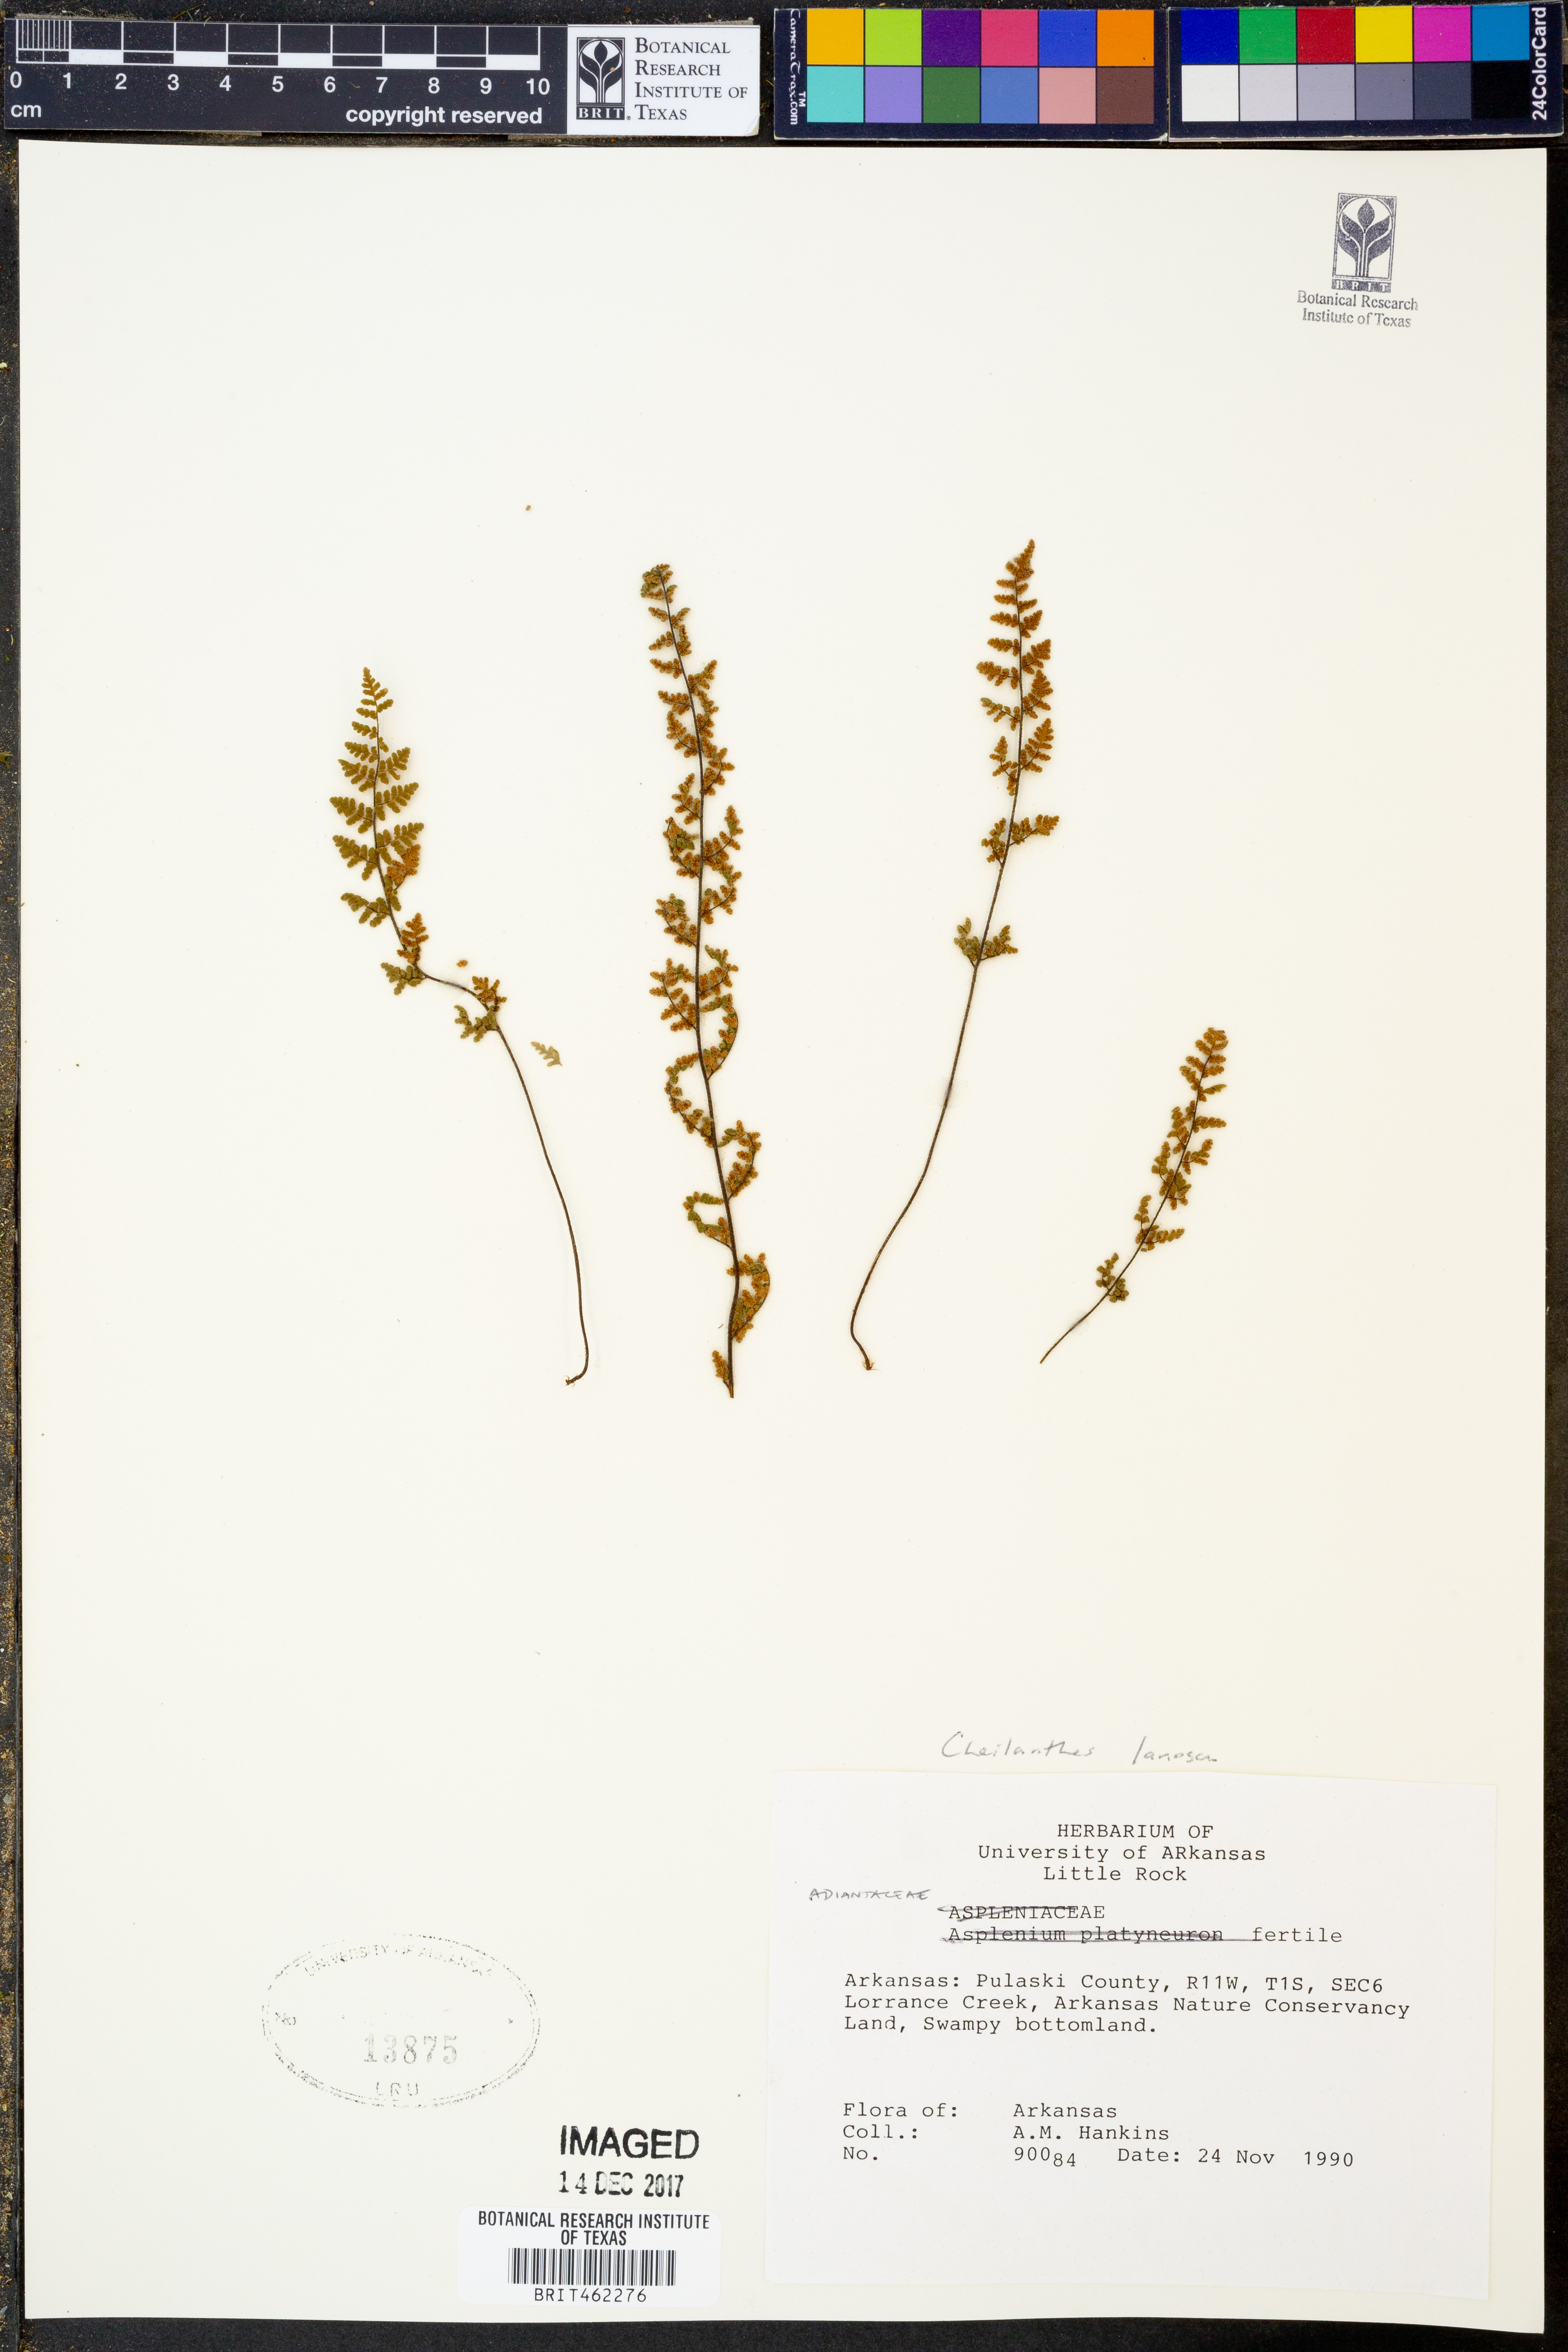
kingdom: Plantae
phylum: Tracheophyta
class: Polypodiopsida
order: Polypodiales
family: Pteridaceae
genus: Myriopteris
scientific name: Myriopteris lanosa
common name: Hairy lip fern
